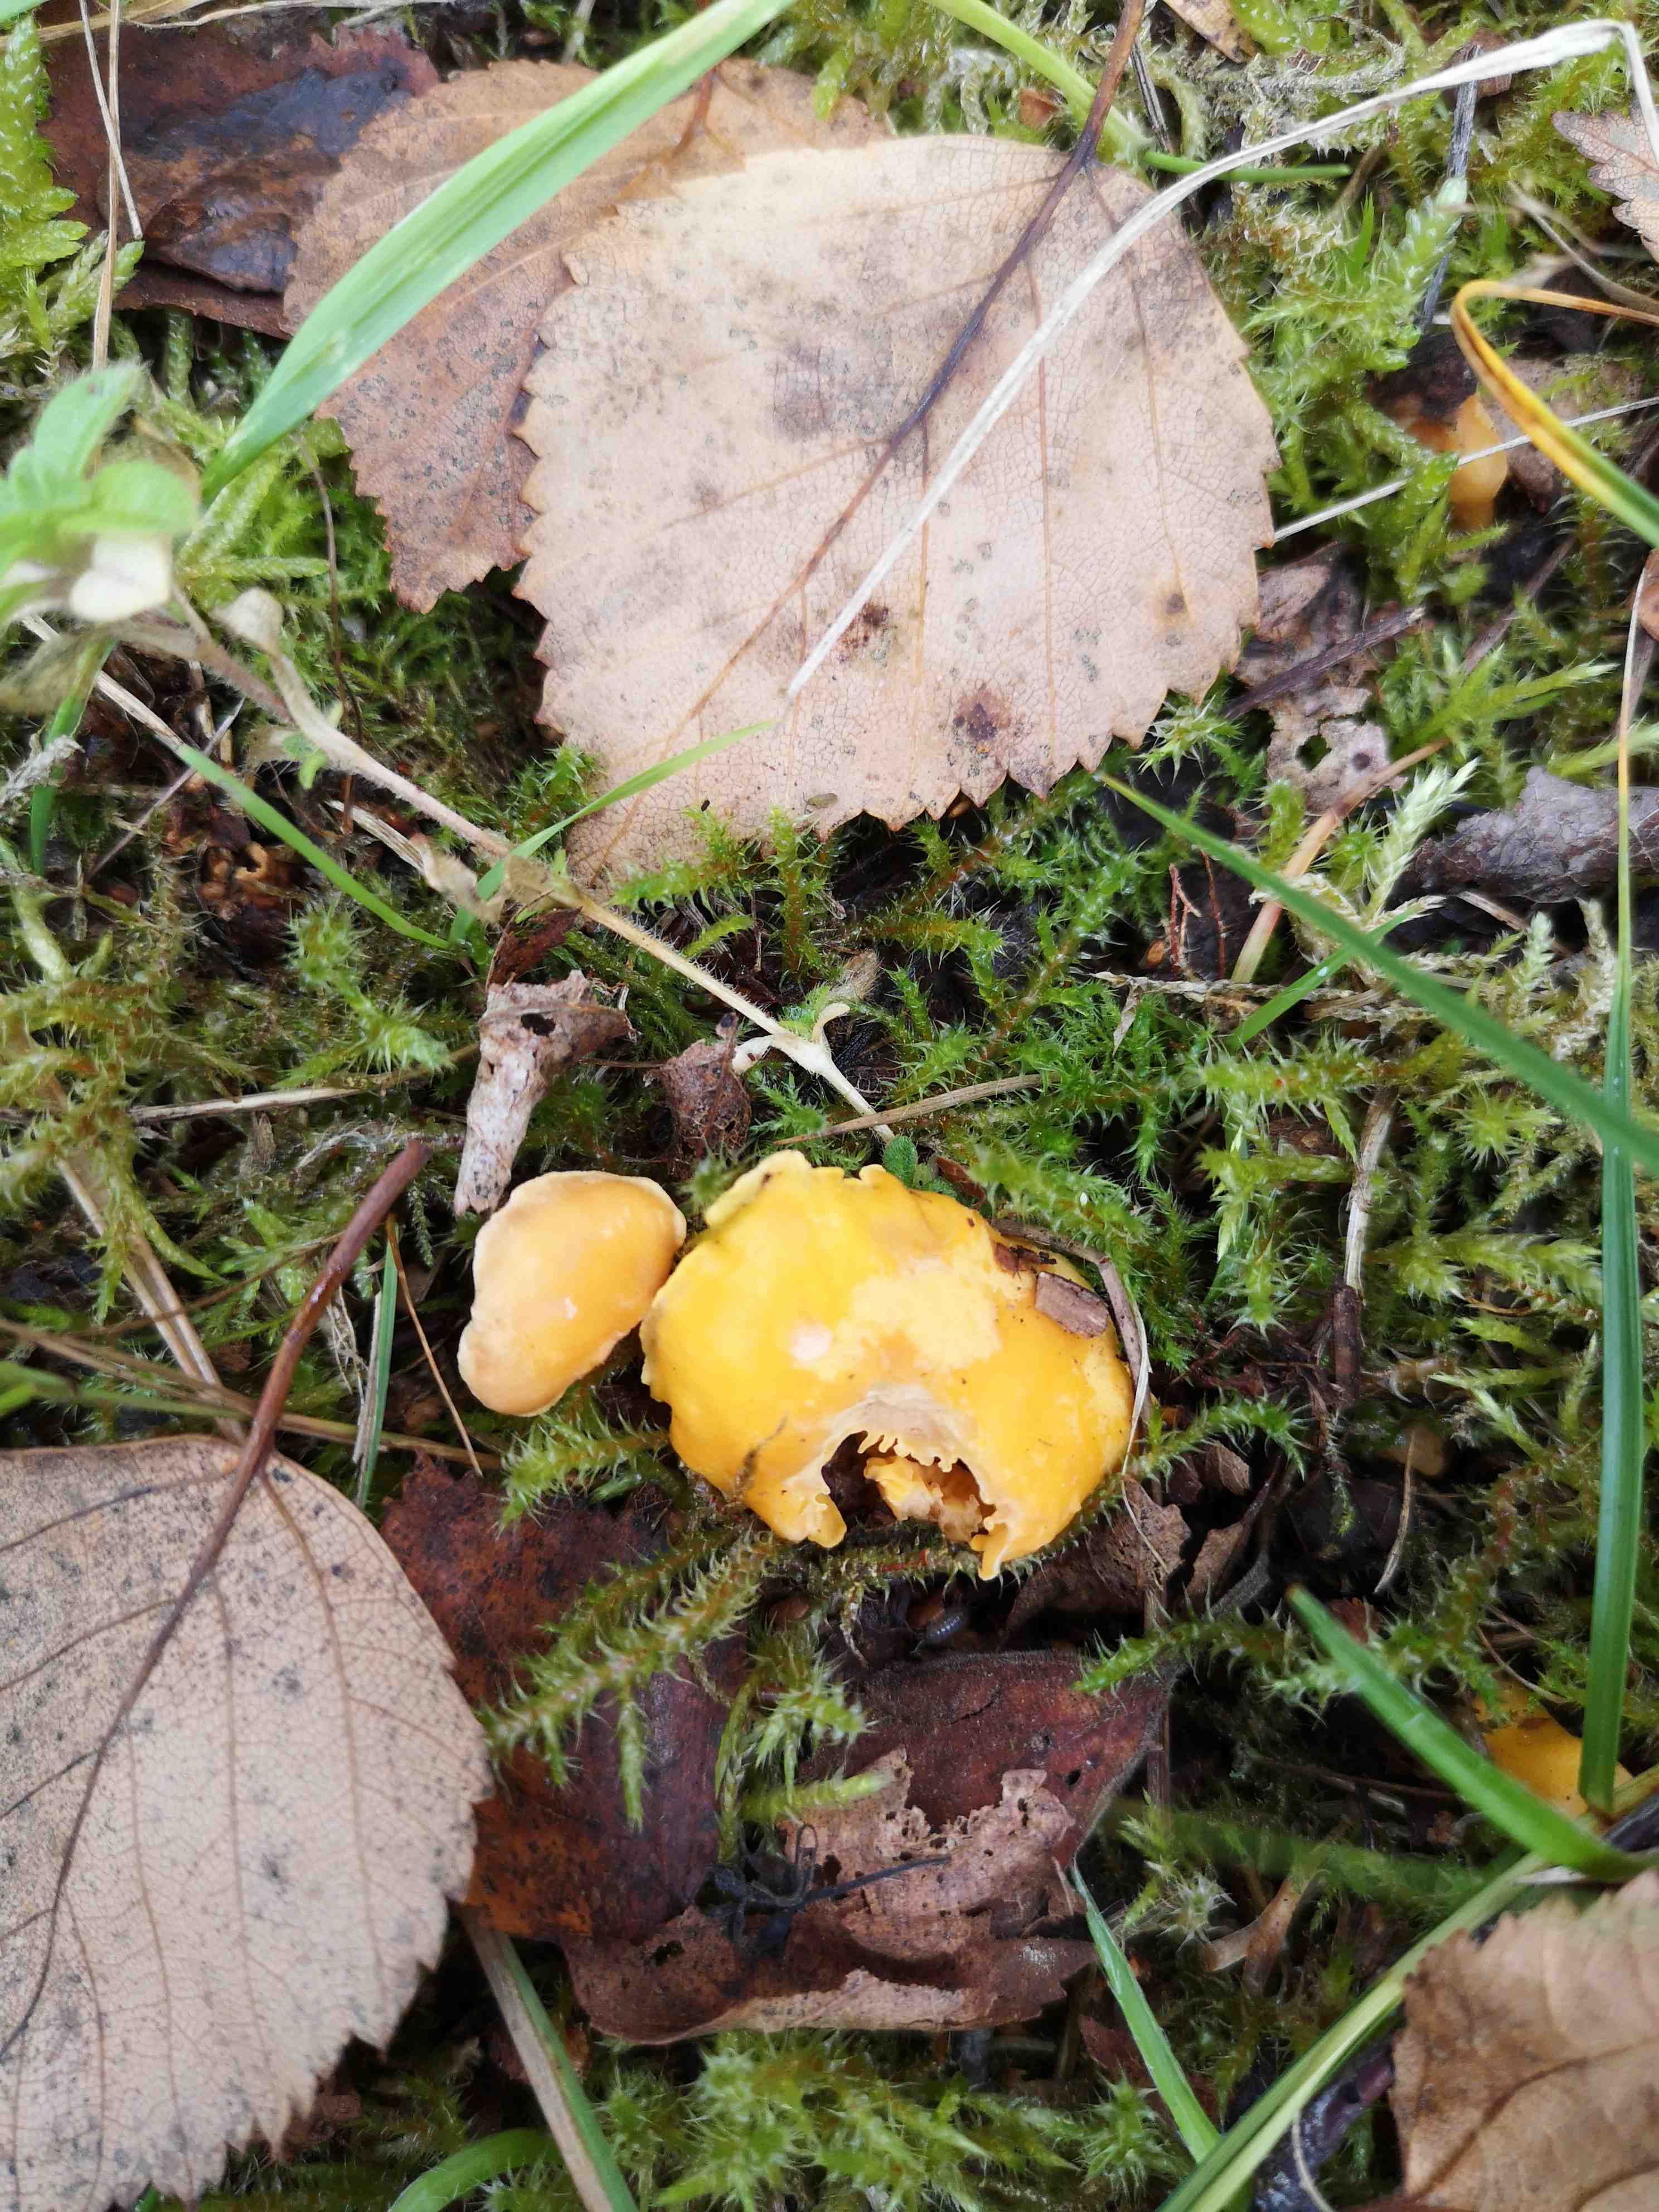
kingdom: Fungi
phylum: Basidiomycota
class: Agaricomycetes
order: Cantharellales
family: Hydnaceae
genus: Cantharellus
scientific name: Cantharellus cibarius
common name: almindelig kantarel
